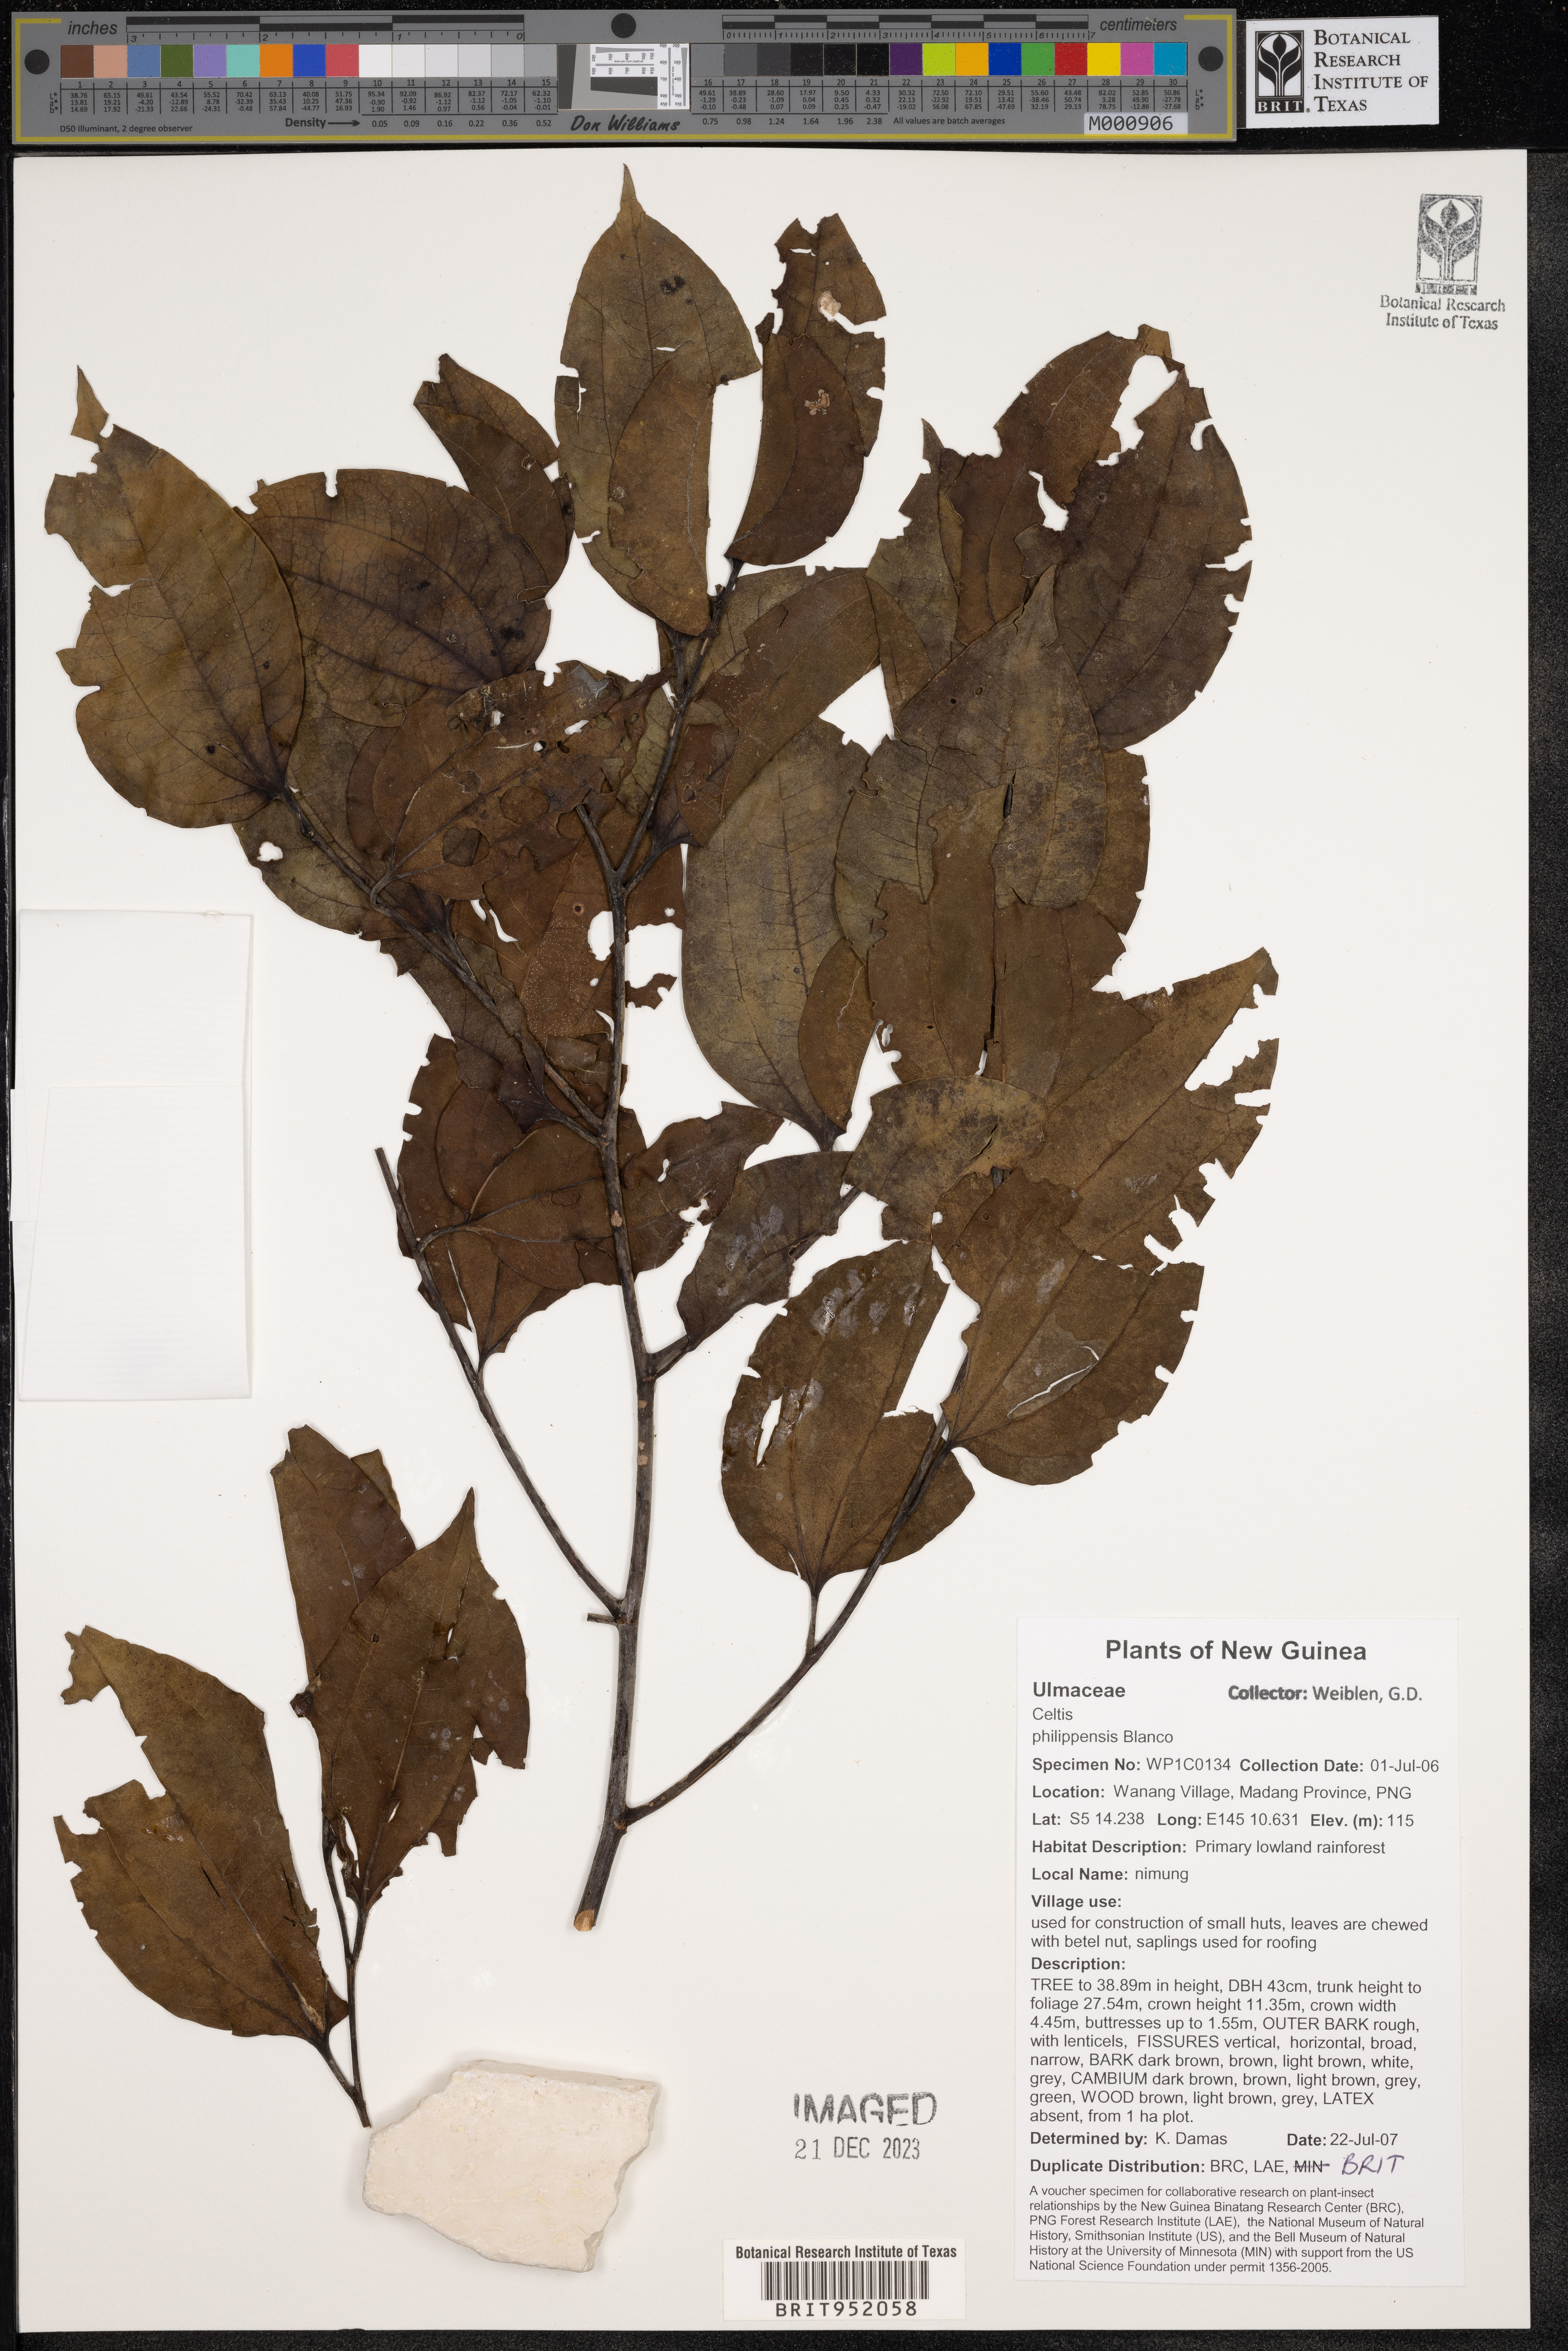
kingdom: Plantae
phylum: Tracheophyta
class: Magnoliopsida
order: Rosales
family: Cannabaceae
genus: Celtis
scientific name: Celtis
